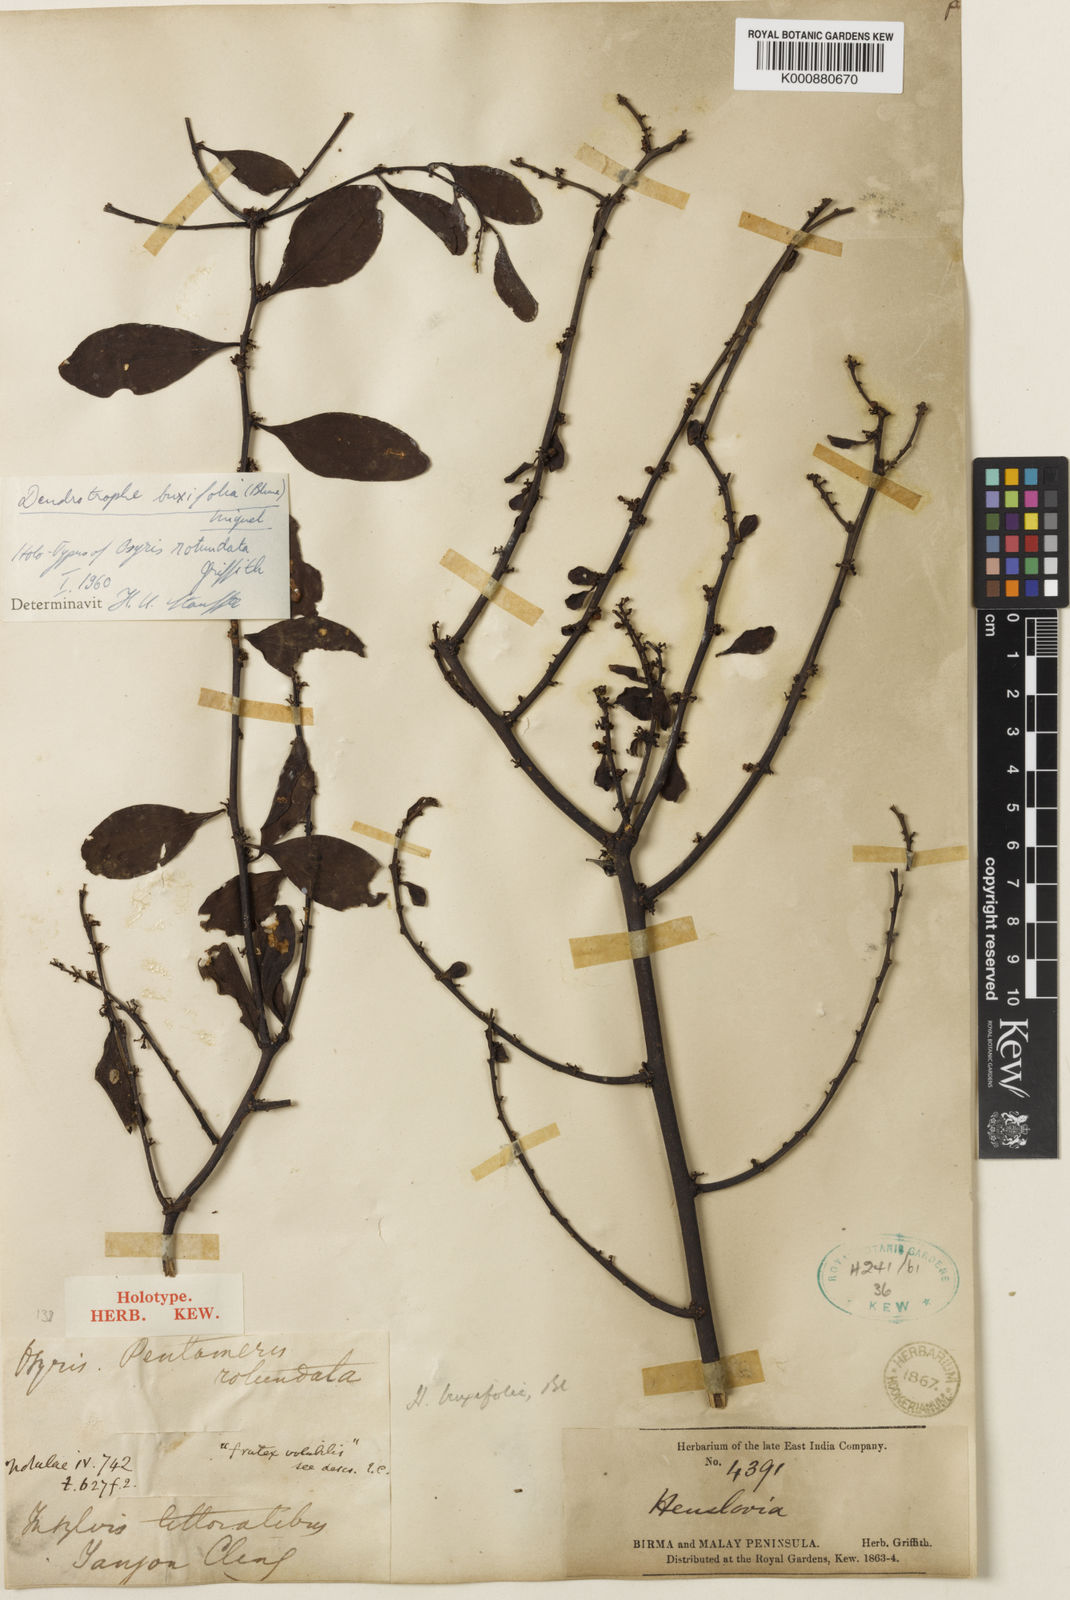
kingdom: Plantae
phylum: Tracheophyta
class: Magnoliopsida
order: Santalales
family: Amphorogynaceae
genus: Dendrotrophe
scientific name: Dendrotrophe buxifolia
